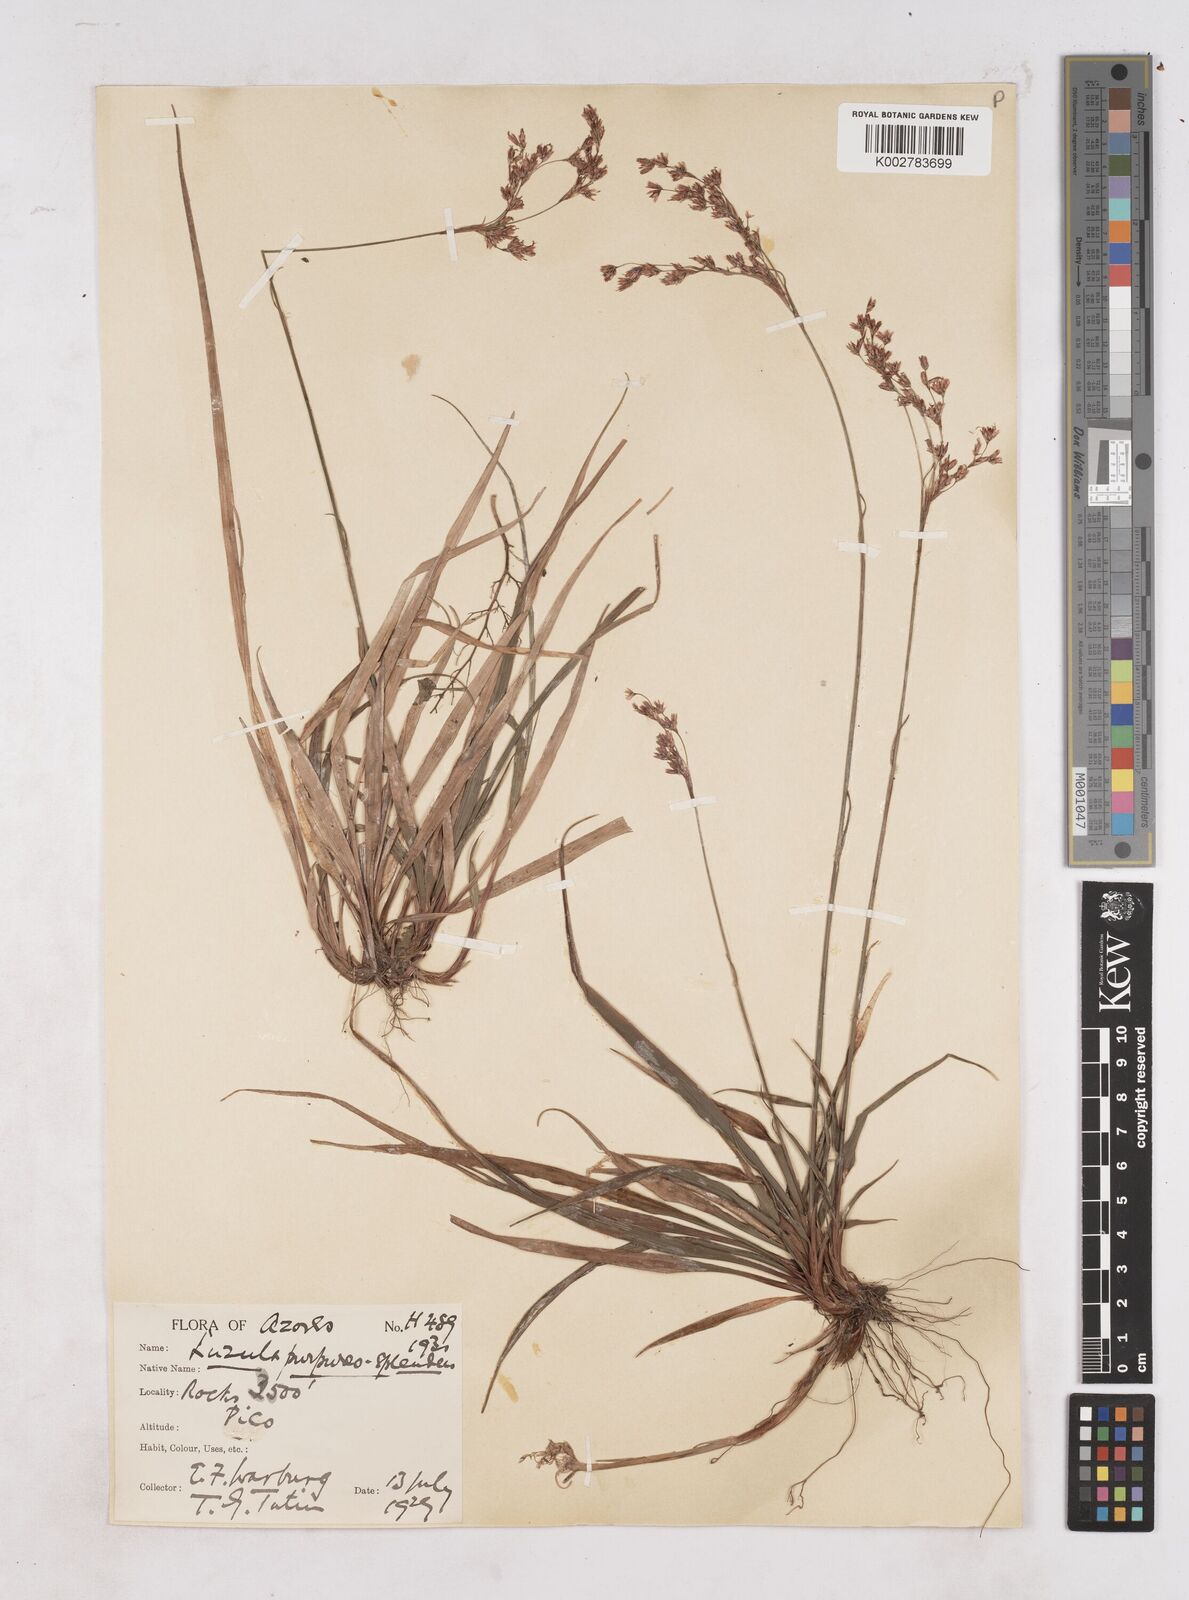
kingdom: Plantae
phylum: Tracheophyta
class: Liliopsida
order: Poales
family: Juncaceae
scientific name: Juncaceae
